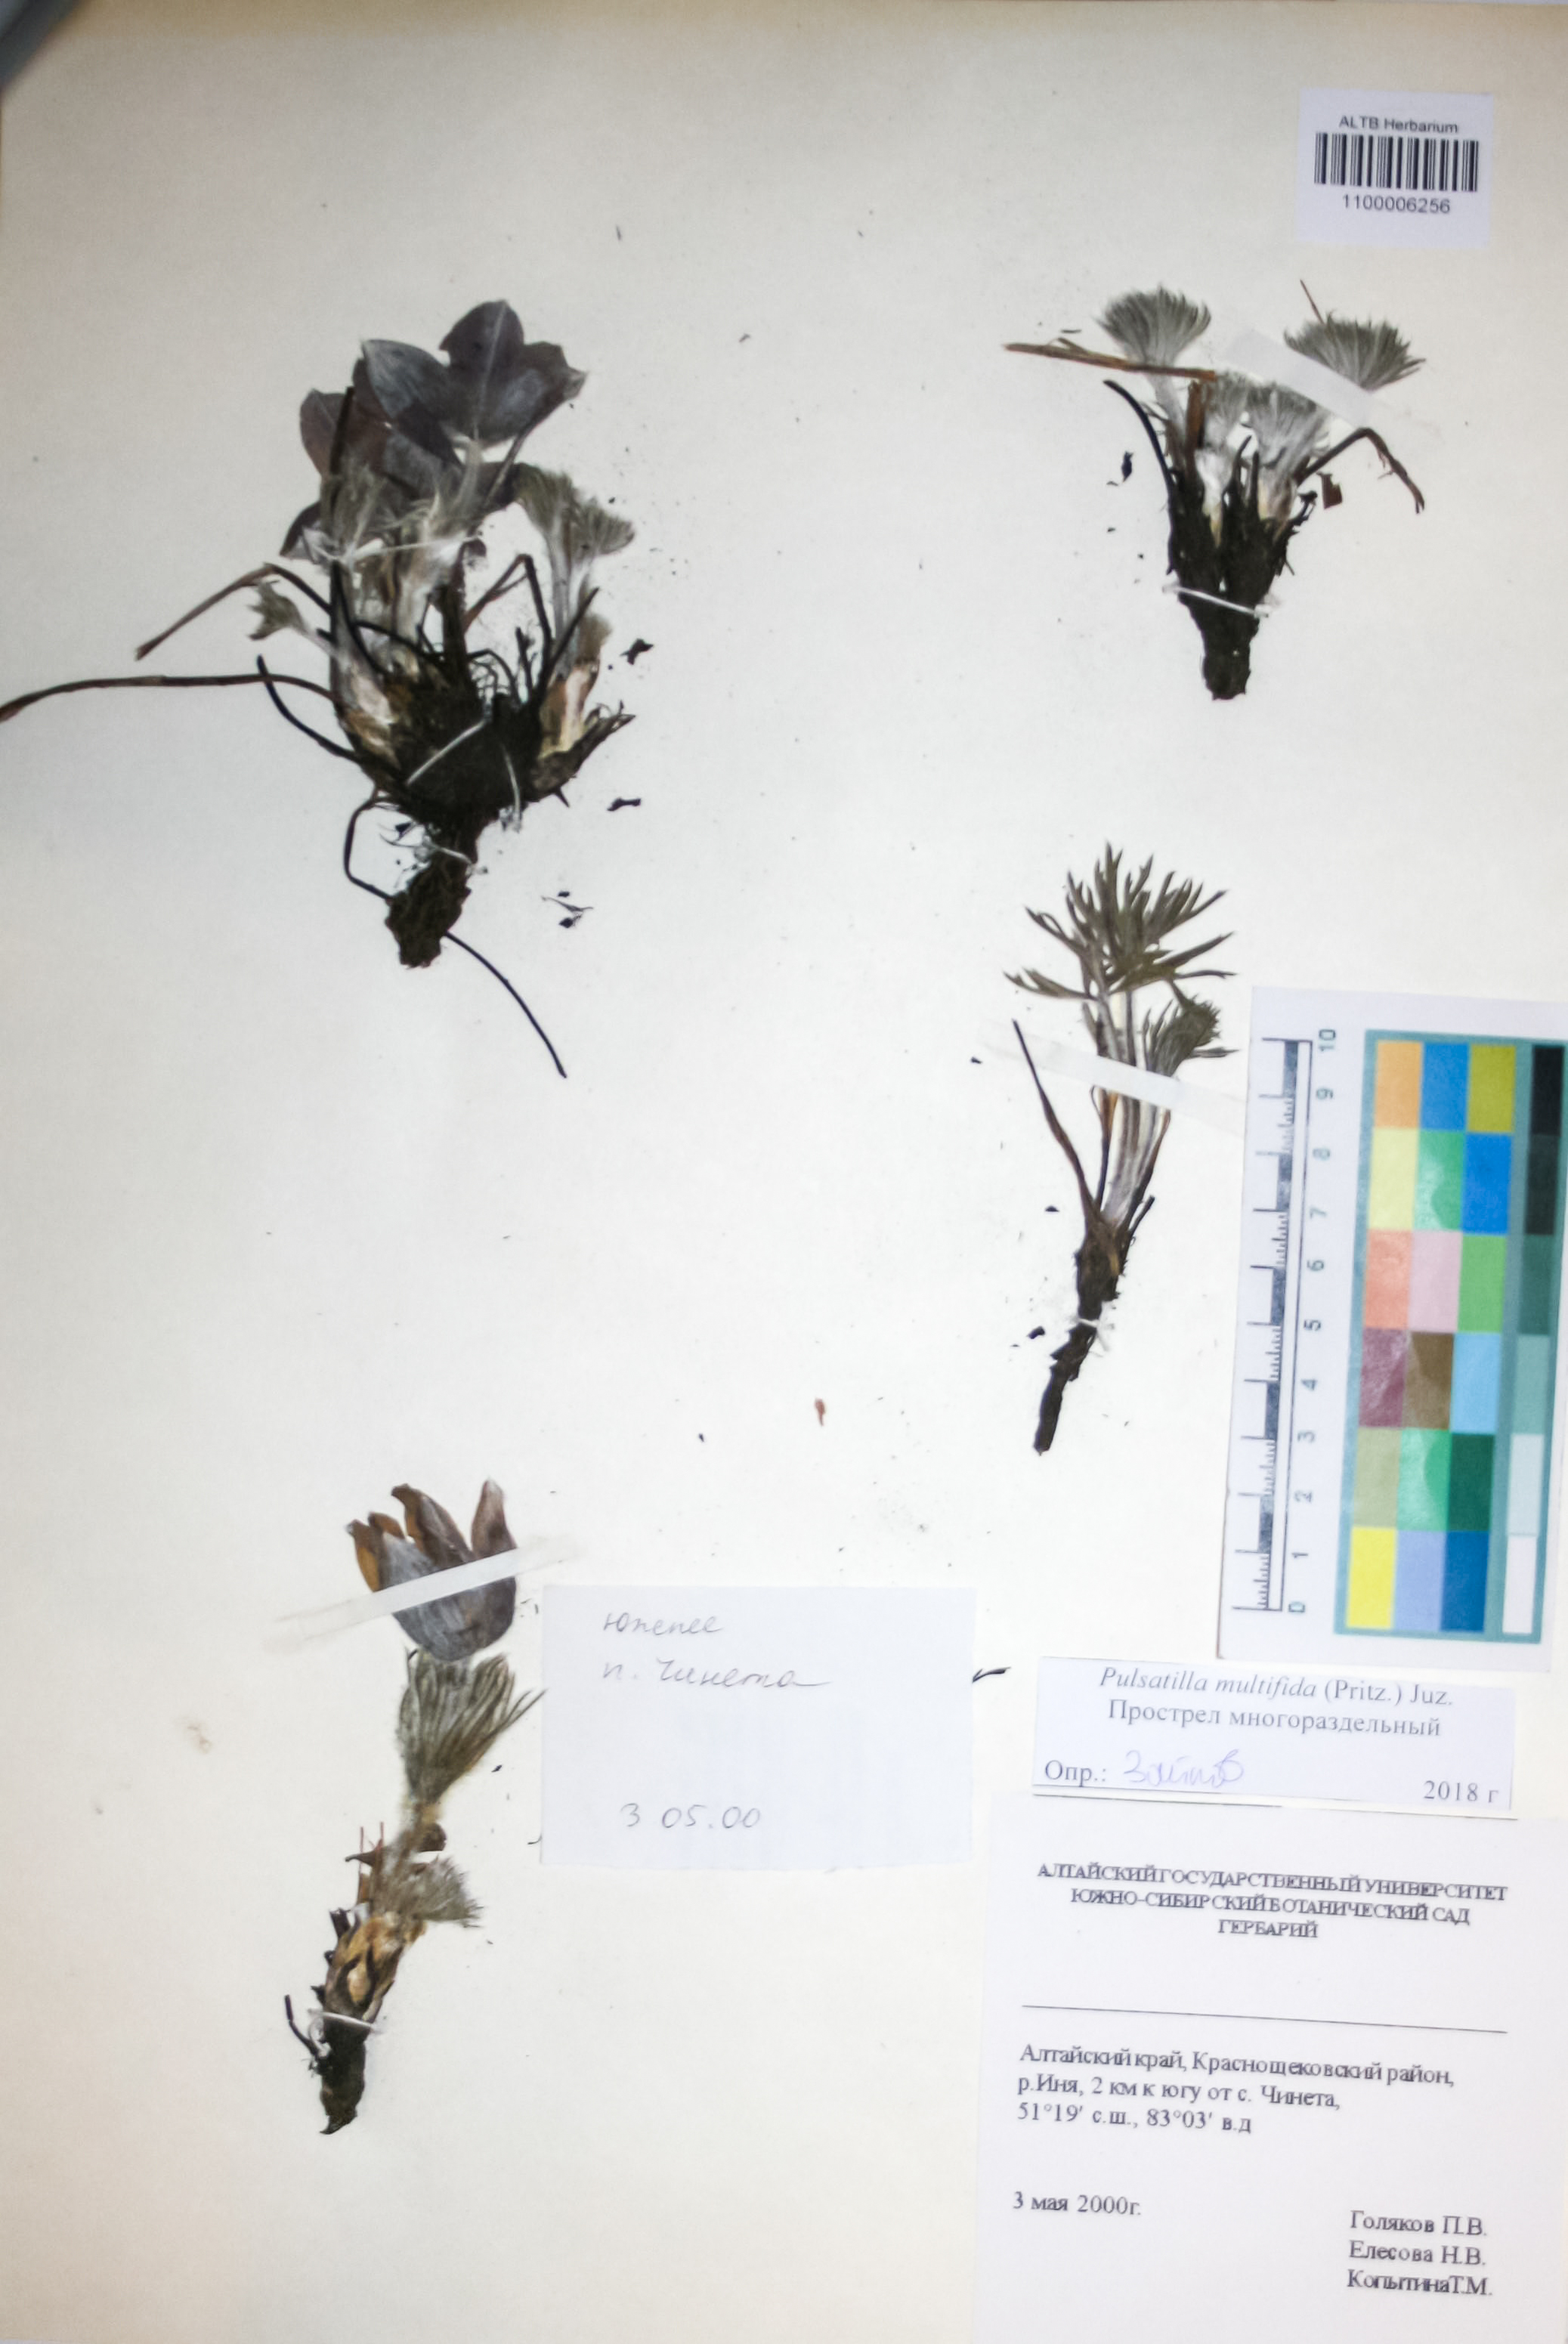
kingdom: Plantae
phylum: Tracheophyta
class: Magnoliopsida
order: Ranunculales
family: Ranunculaceae
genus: Pulsatilla
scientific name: Pulsatilla patens
